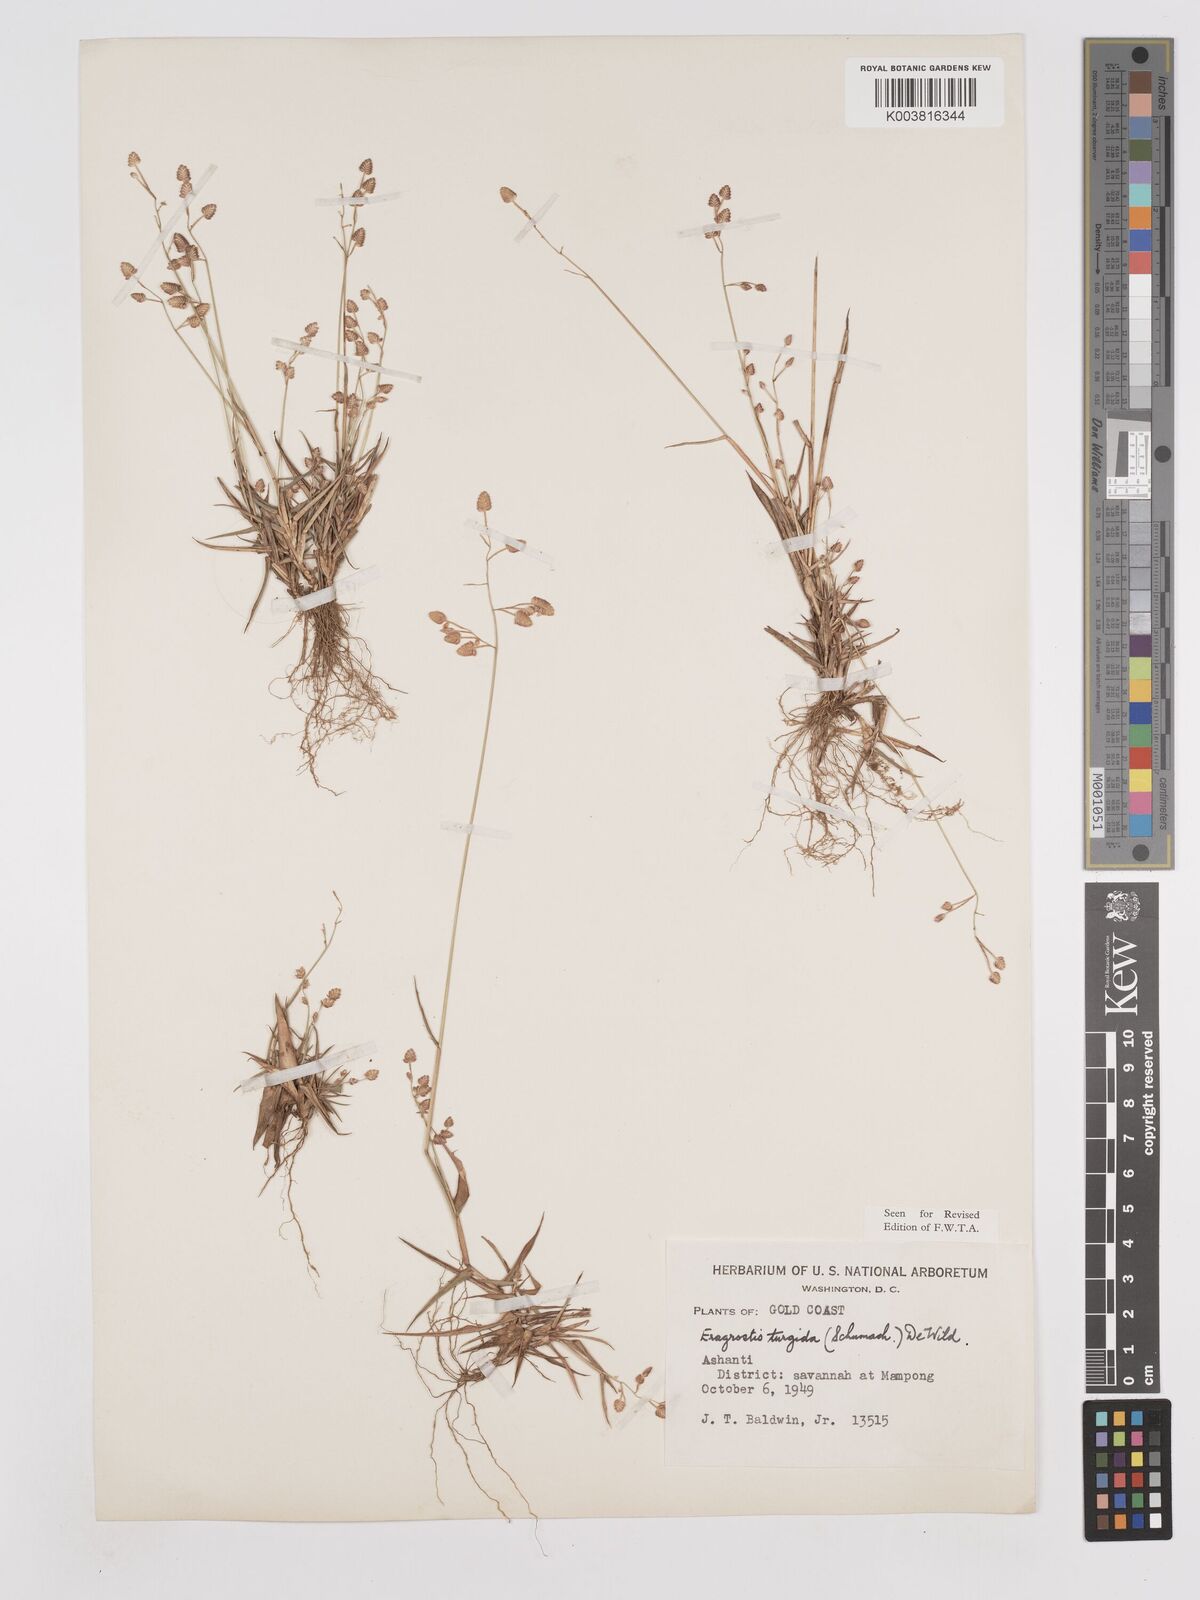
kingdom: Plantae
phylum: Tracheophyta
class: Liliopsida
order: Poales
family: Poaceae
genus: Eragrostis
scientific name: Eragrostis turgida
